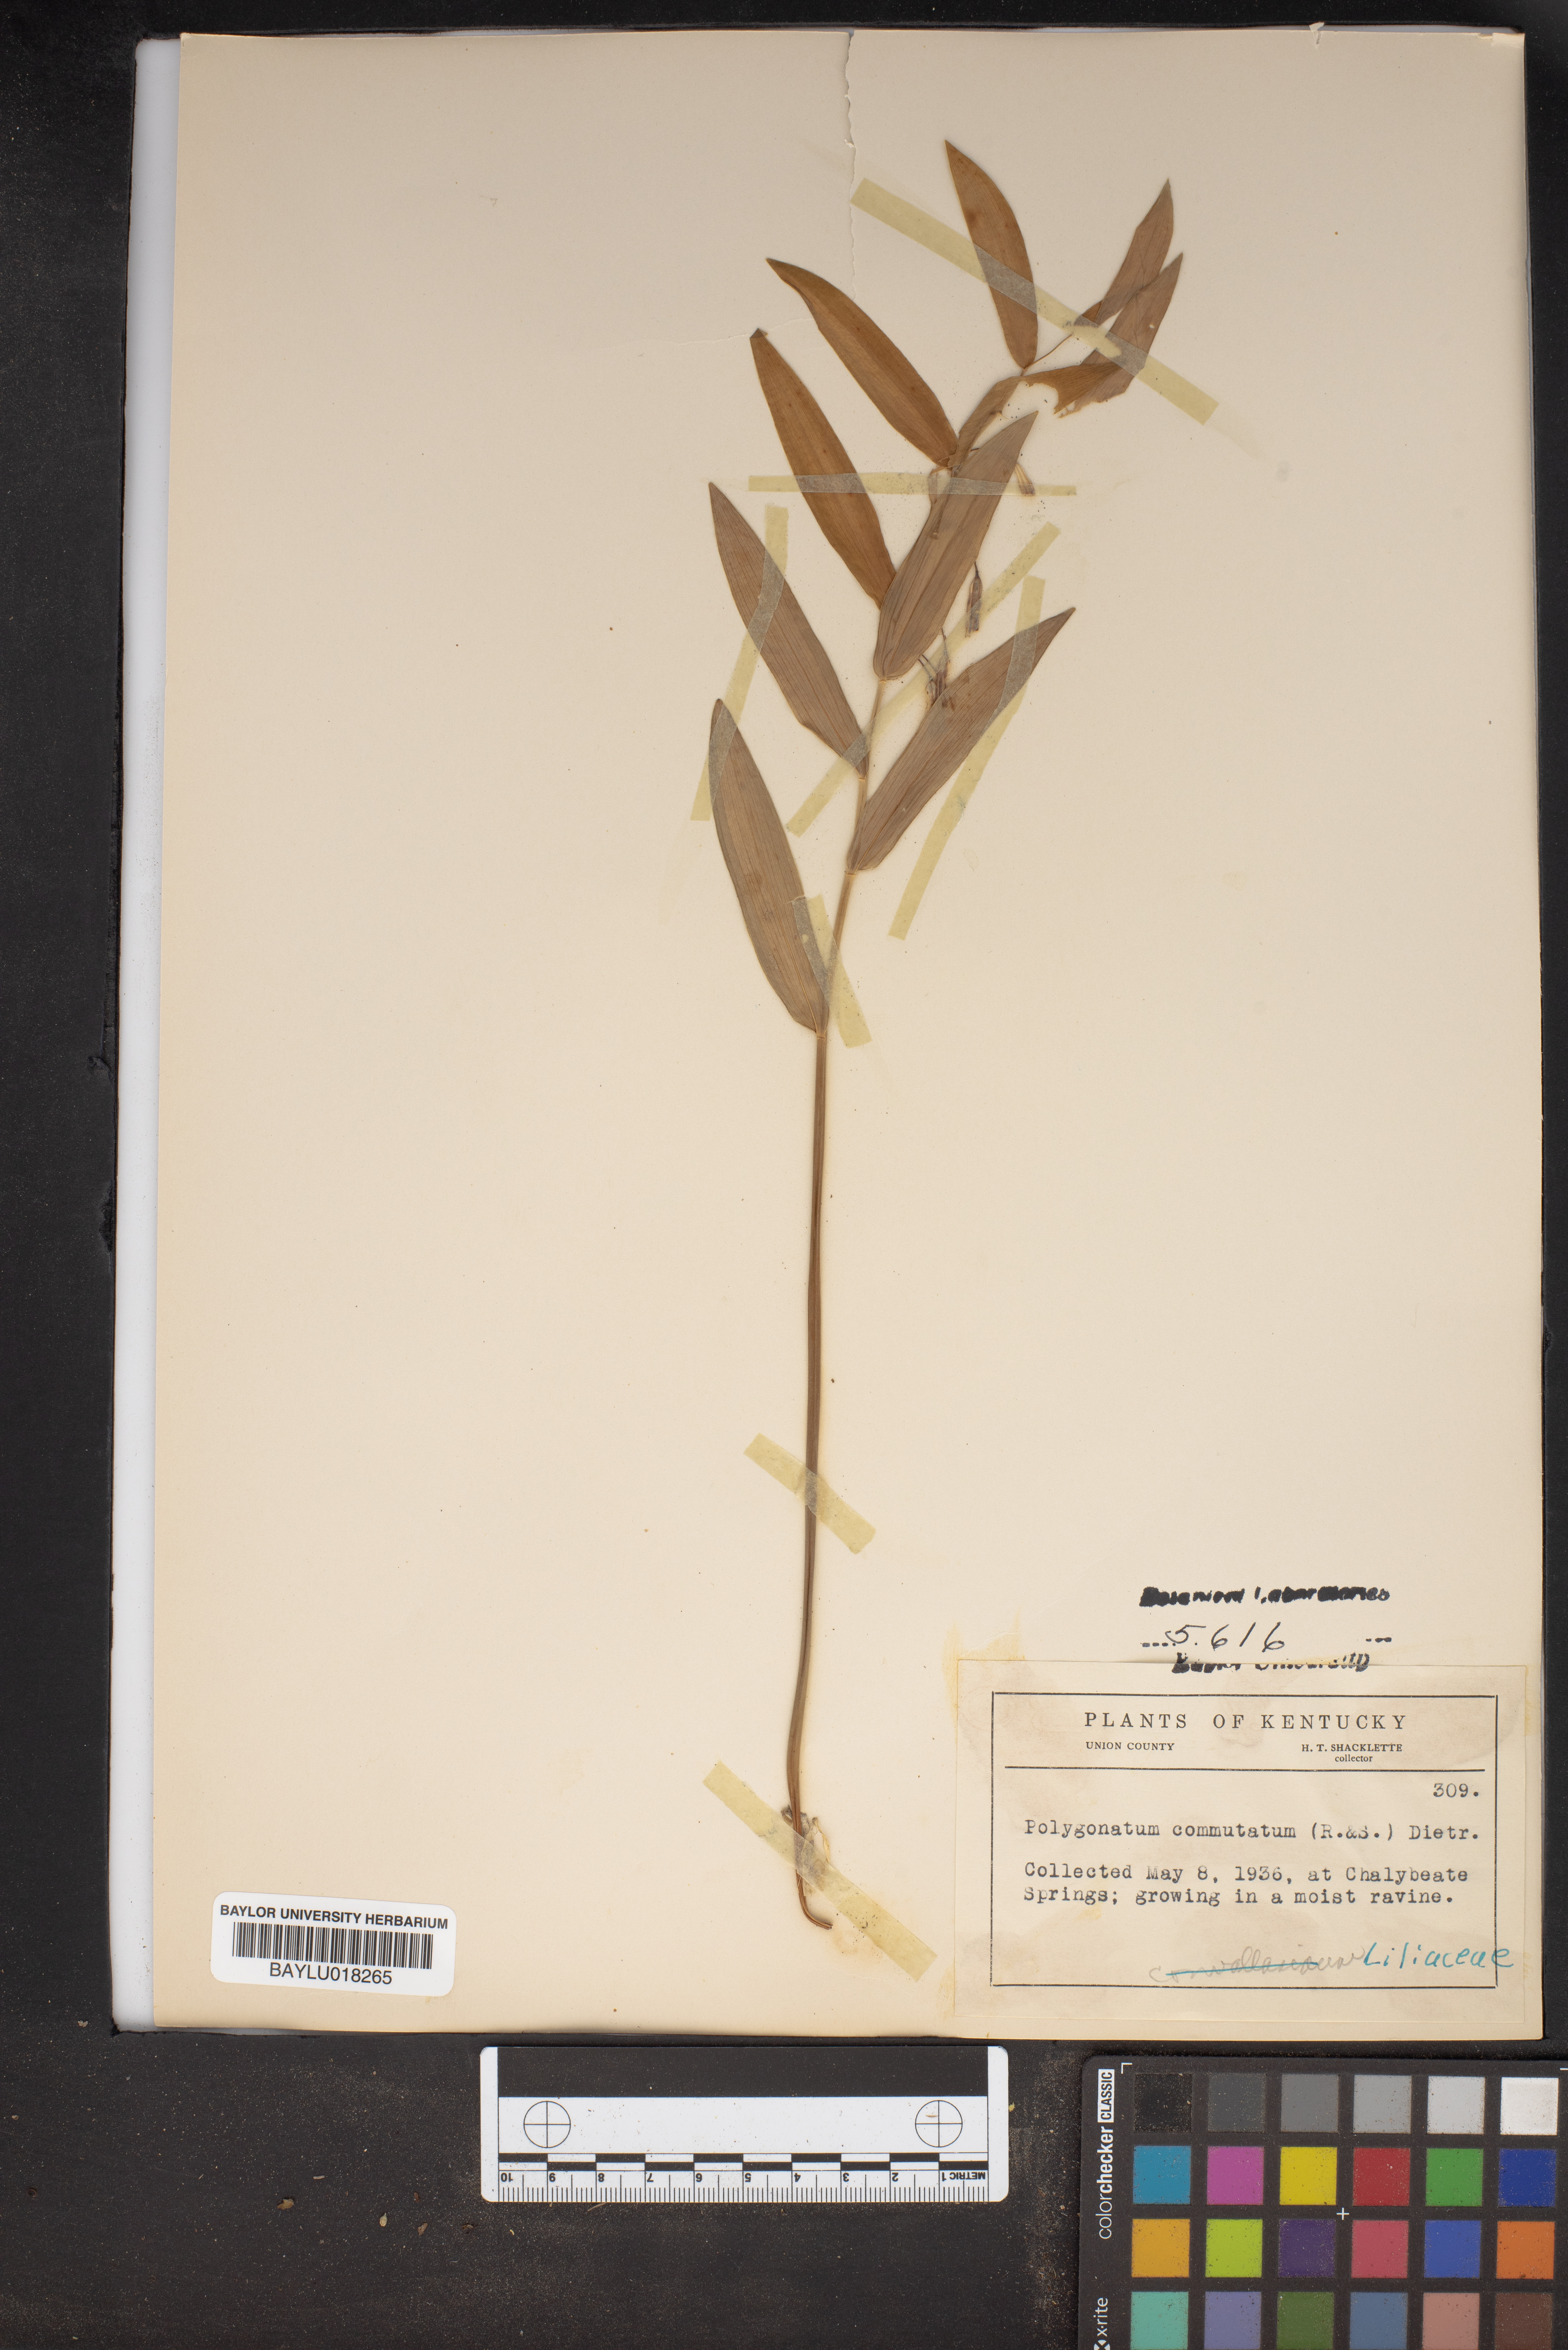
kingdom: Plantae
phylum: Tracheophyta
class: Liliopsida
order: Asparagales
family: Asparagaceae
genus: Polygonatum
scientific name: Polygonatum biflorum
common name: American solomon's-seal
